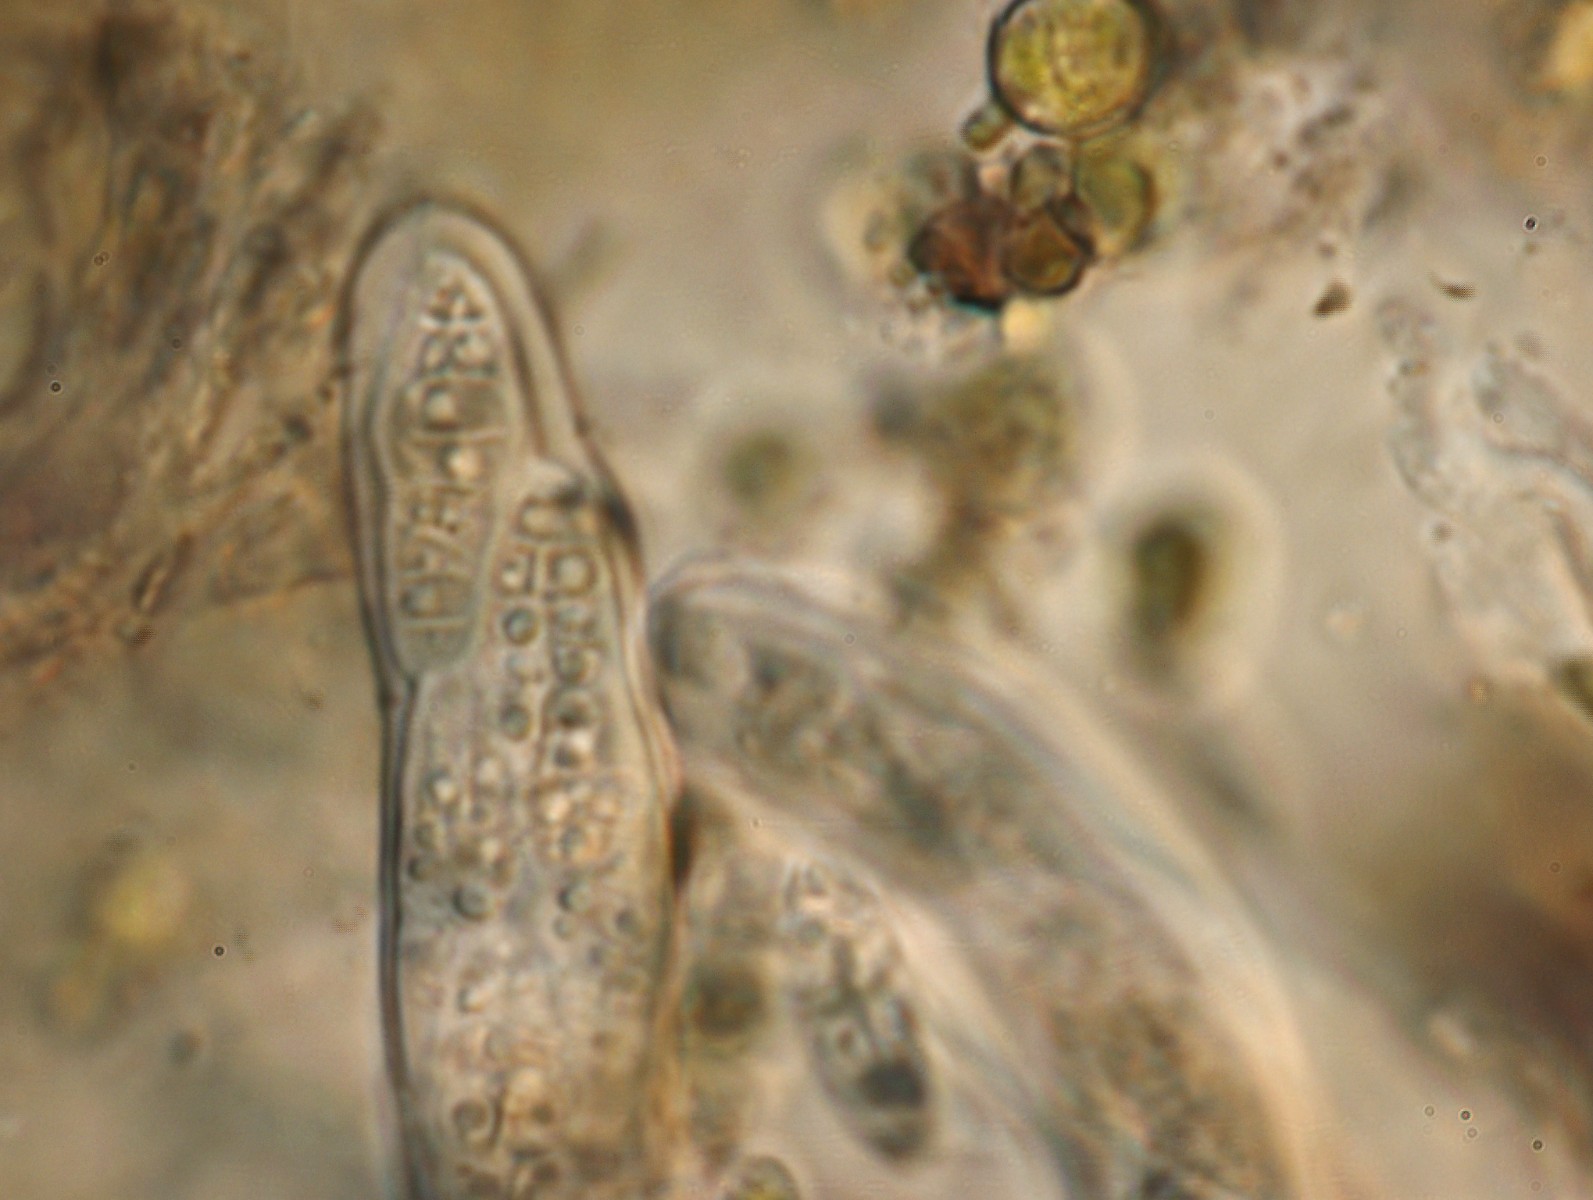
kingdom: Fungi
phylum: Ascomycota
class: Dothideomycetes
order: Hysteriales
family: Hysteriaceae
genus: Gloniopsis
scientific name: Gloniopsis praelonga
